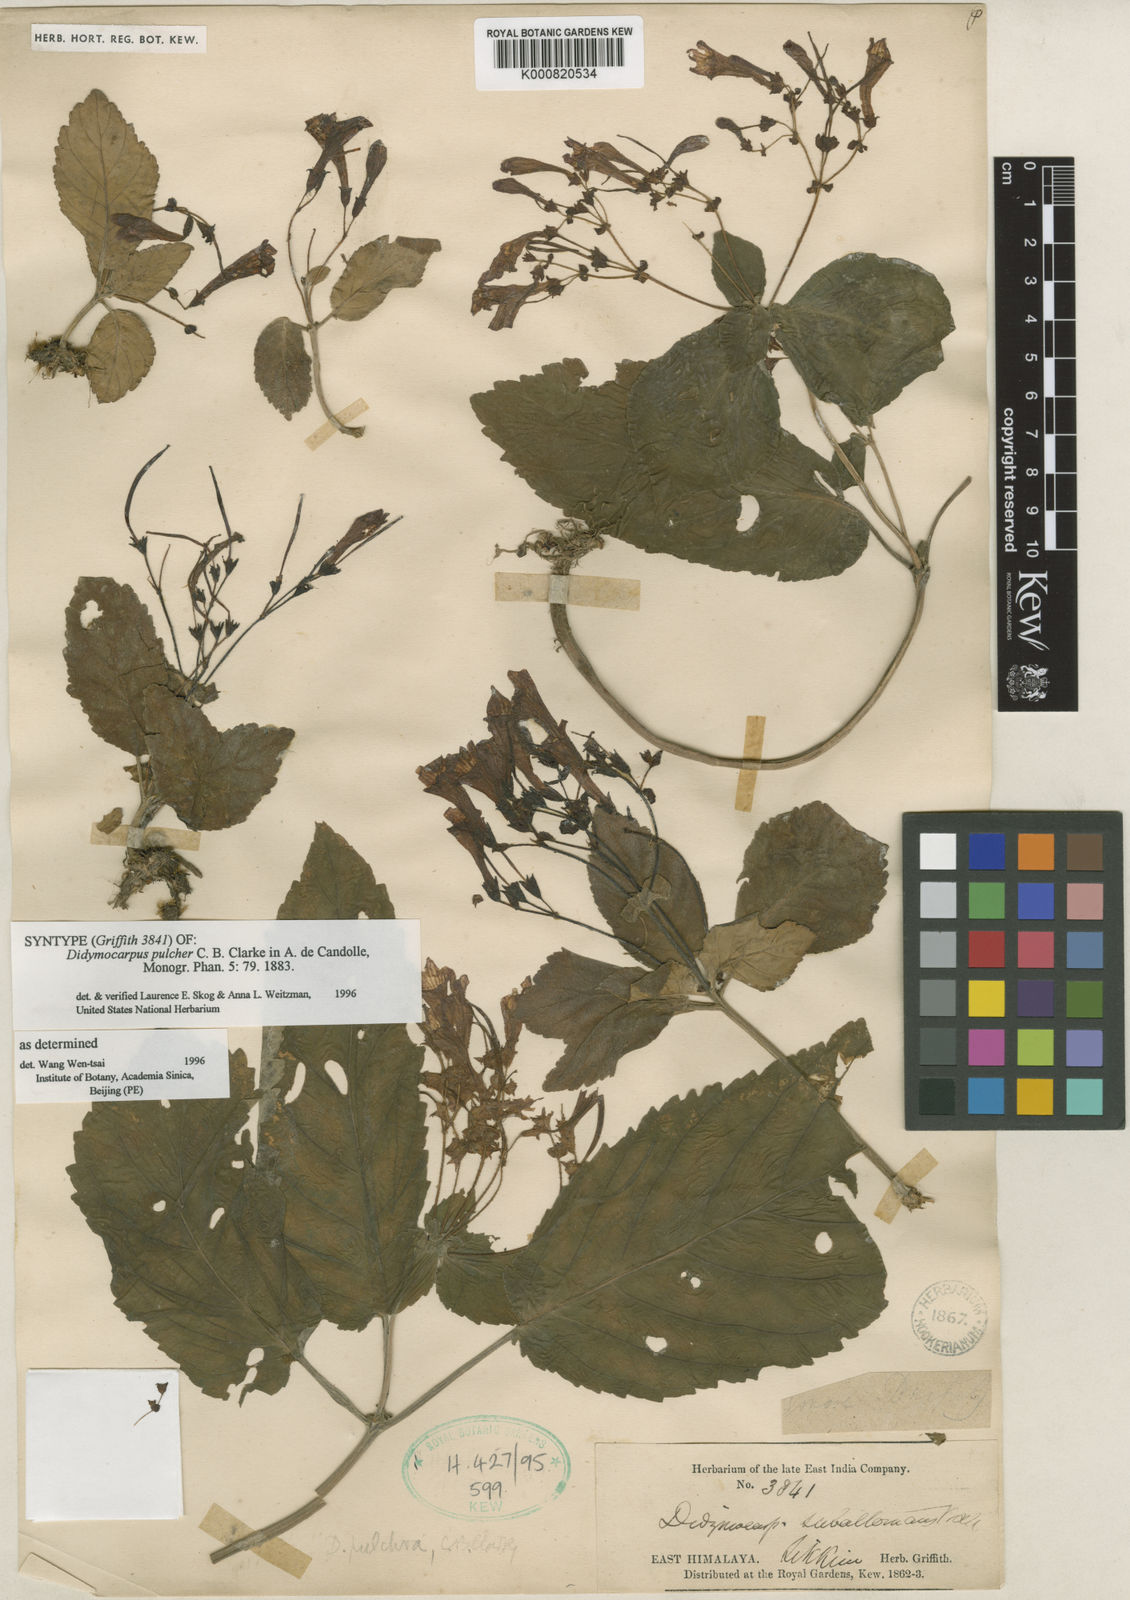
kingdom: Plantae
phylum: Tracheophyta
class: Magnoliopsida
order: Lamiales
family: Gesneriaceae
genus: Didymocarpus
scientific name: Didymocarpus punduanus
